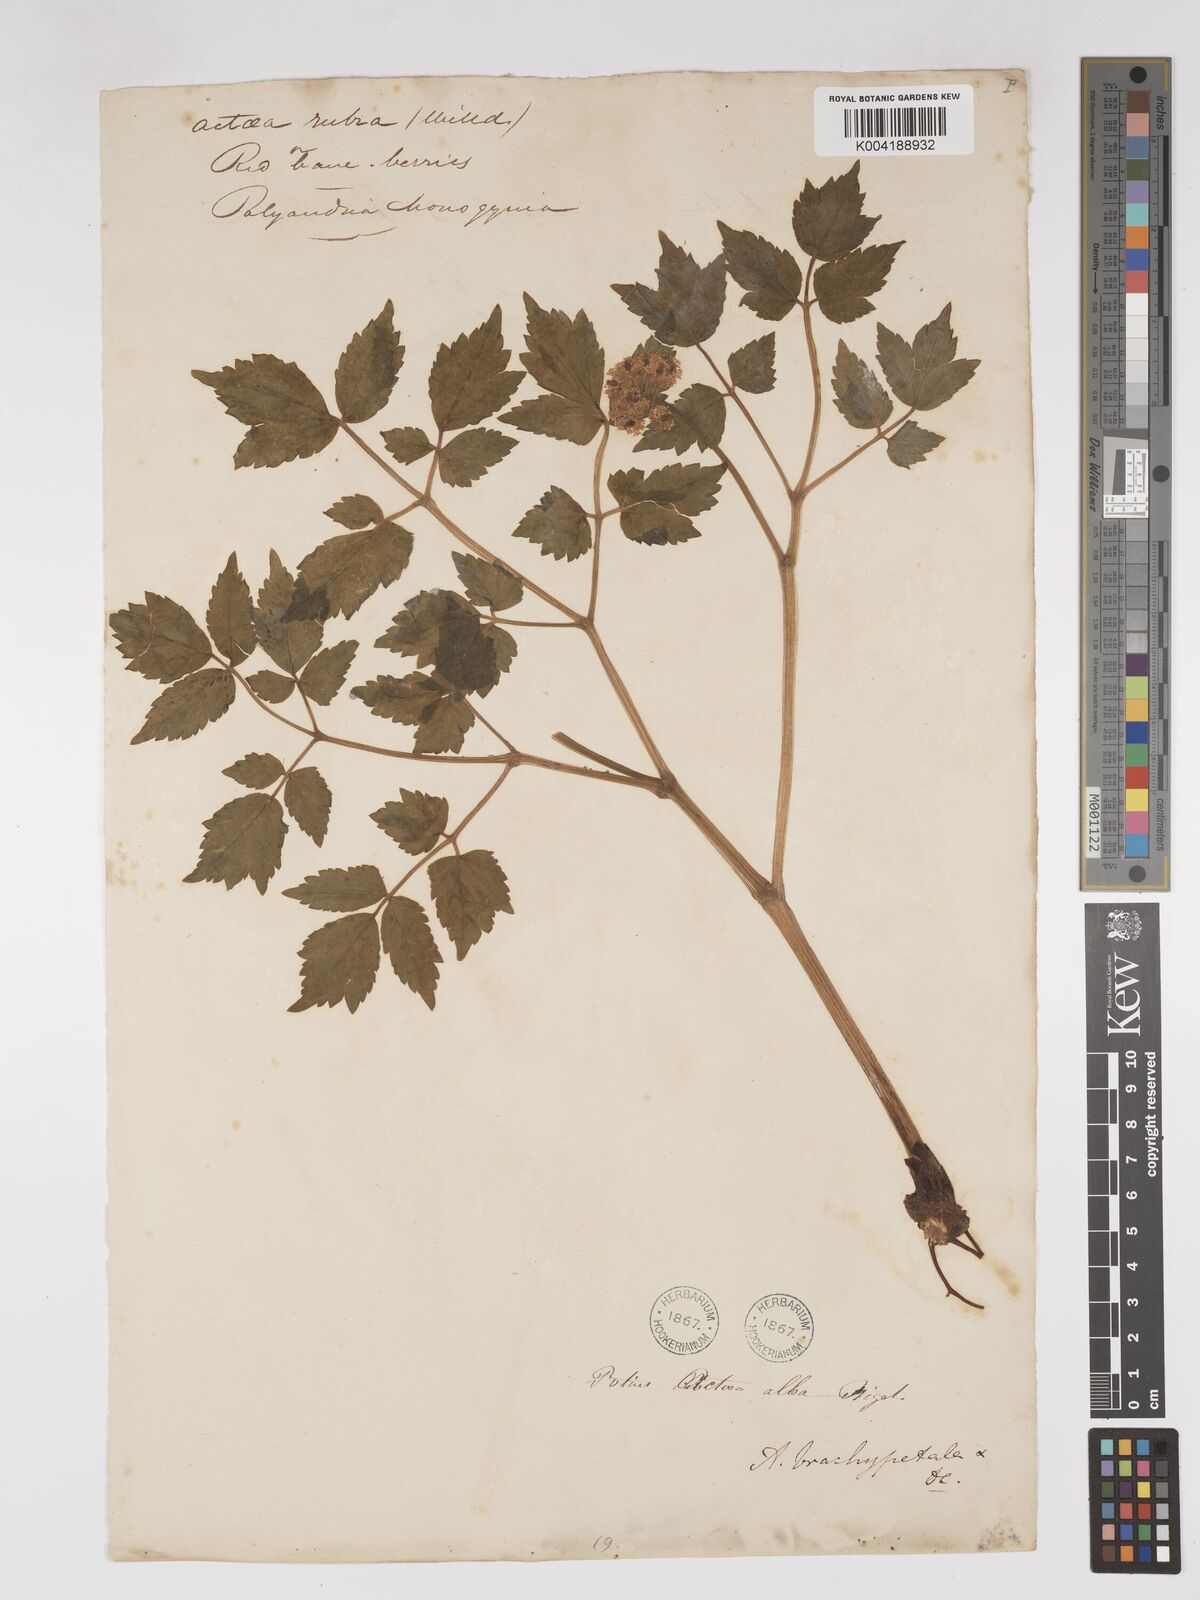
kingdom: Plantae
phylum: Tracheophyta
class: Magnoliopsida
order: Ranunculales
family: Ranunculaceae
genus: Actaea
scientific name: Actaea rubra
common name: Red baneberry
